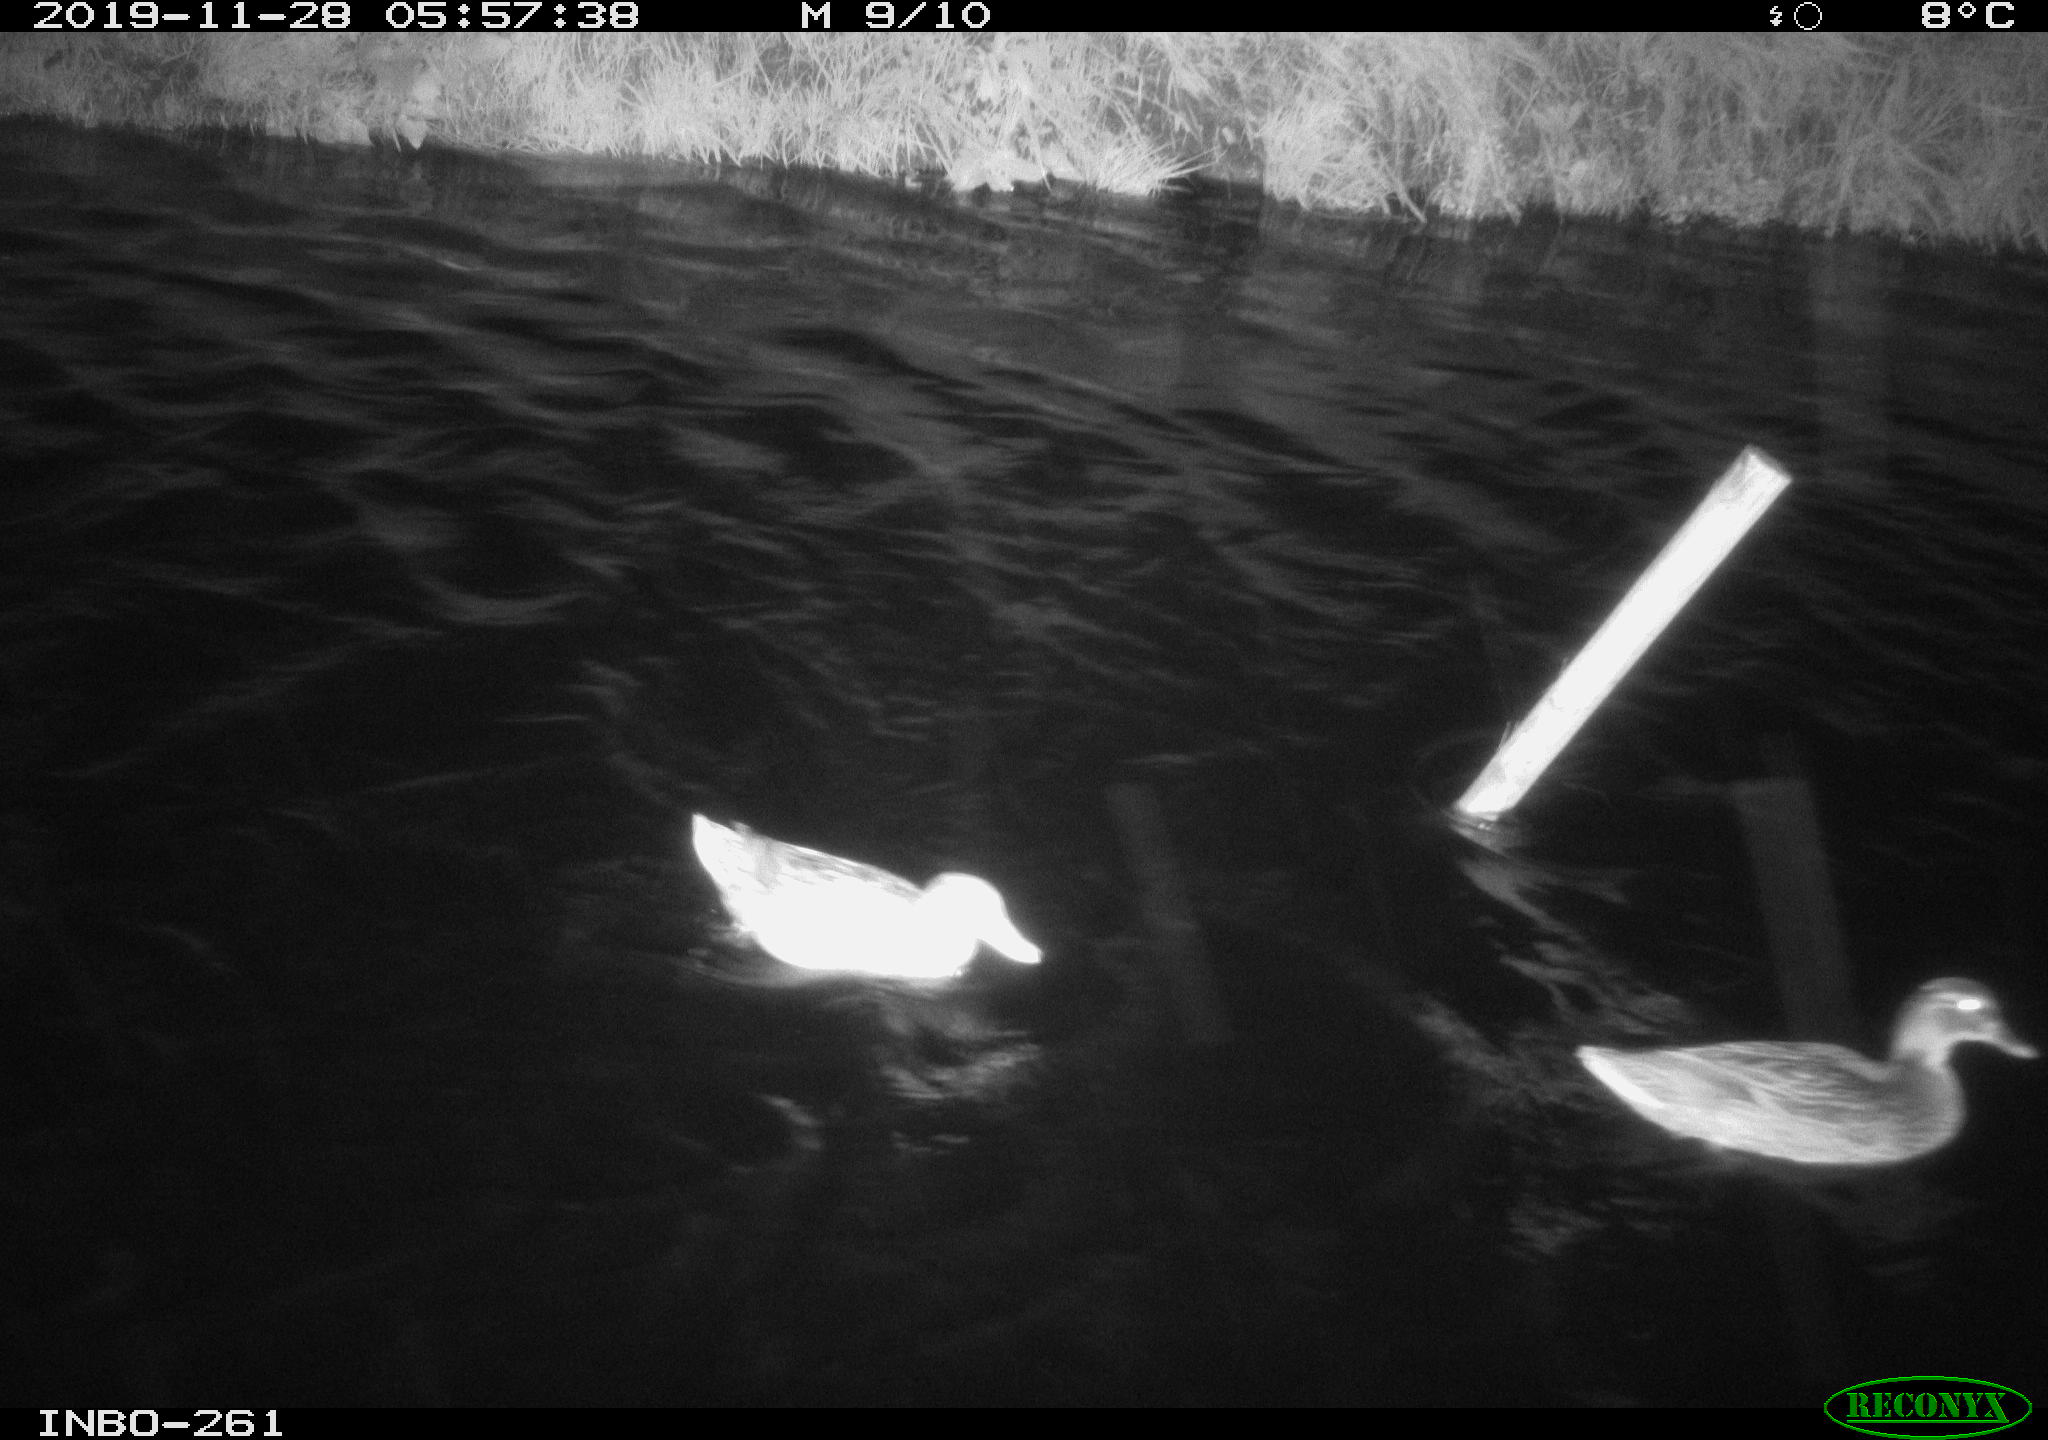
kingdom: Animalia
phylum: Chordata
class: Aves
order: Anseriformes
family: Anatidae
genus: Anas
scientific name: Anas platyrhynchos
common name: Mallard
